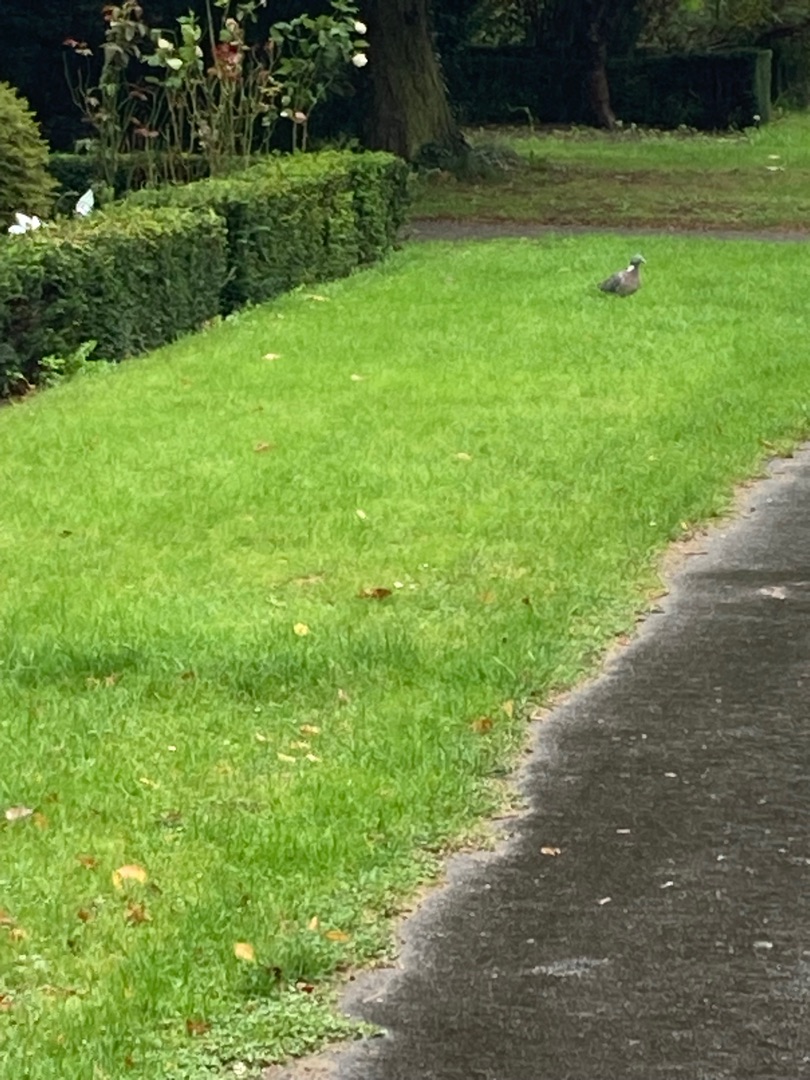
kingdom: Animalia
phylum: Chordata
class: Aves
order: Columbiformes
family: Columbidae
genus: Columba
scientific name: Columba palumbus
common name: Ringdue
